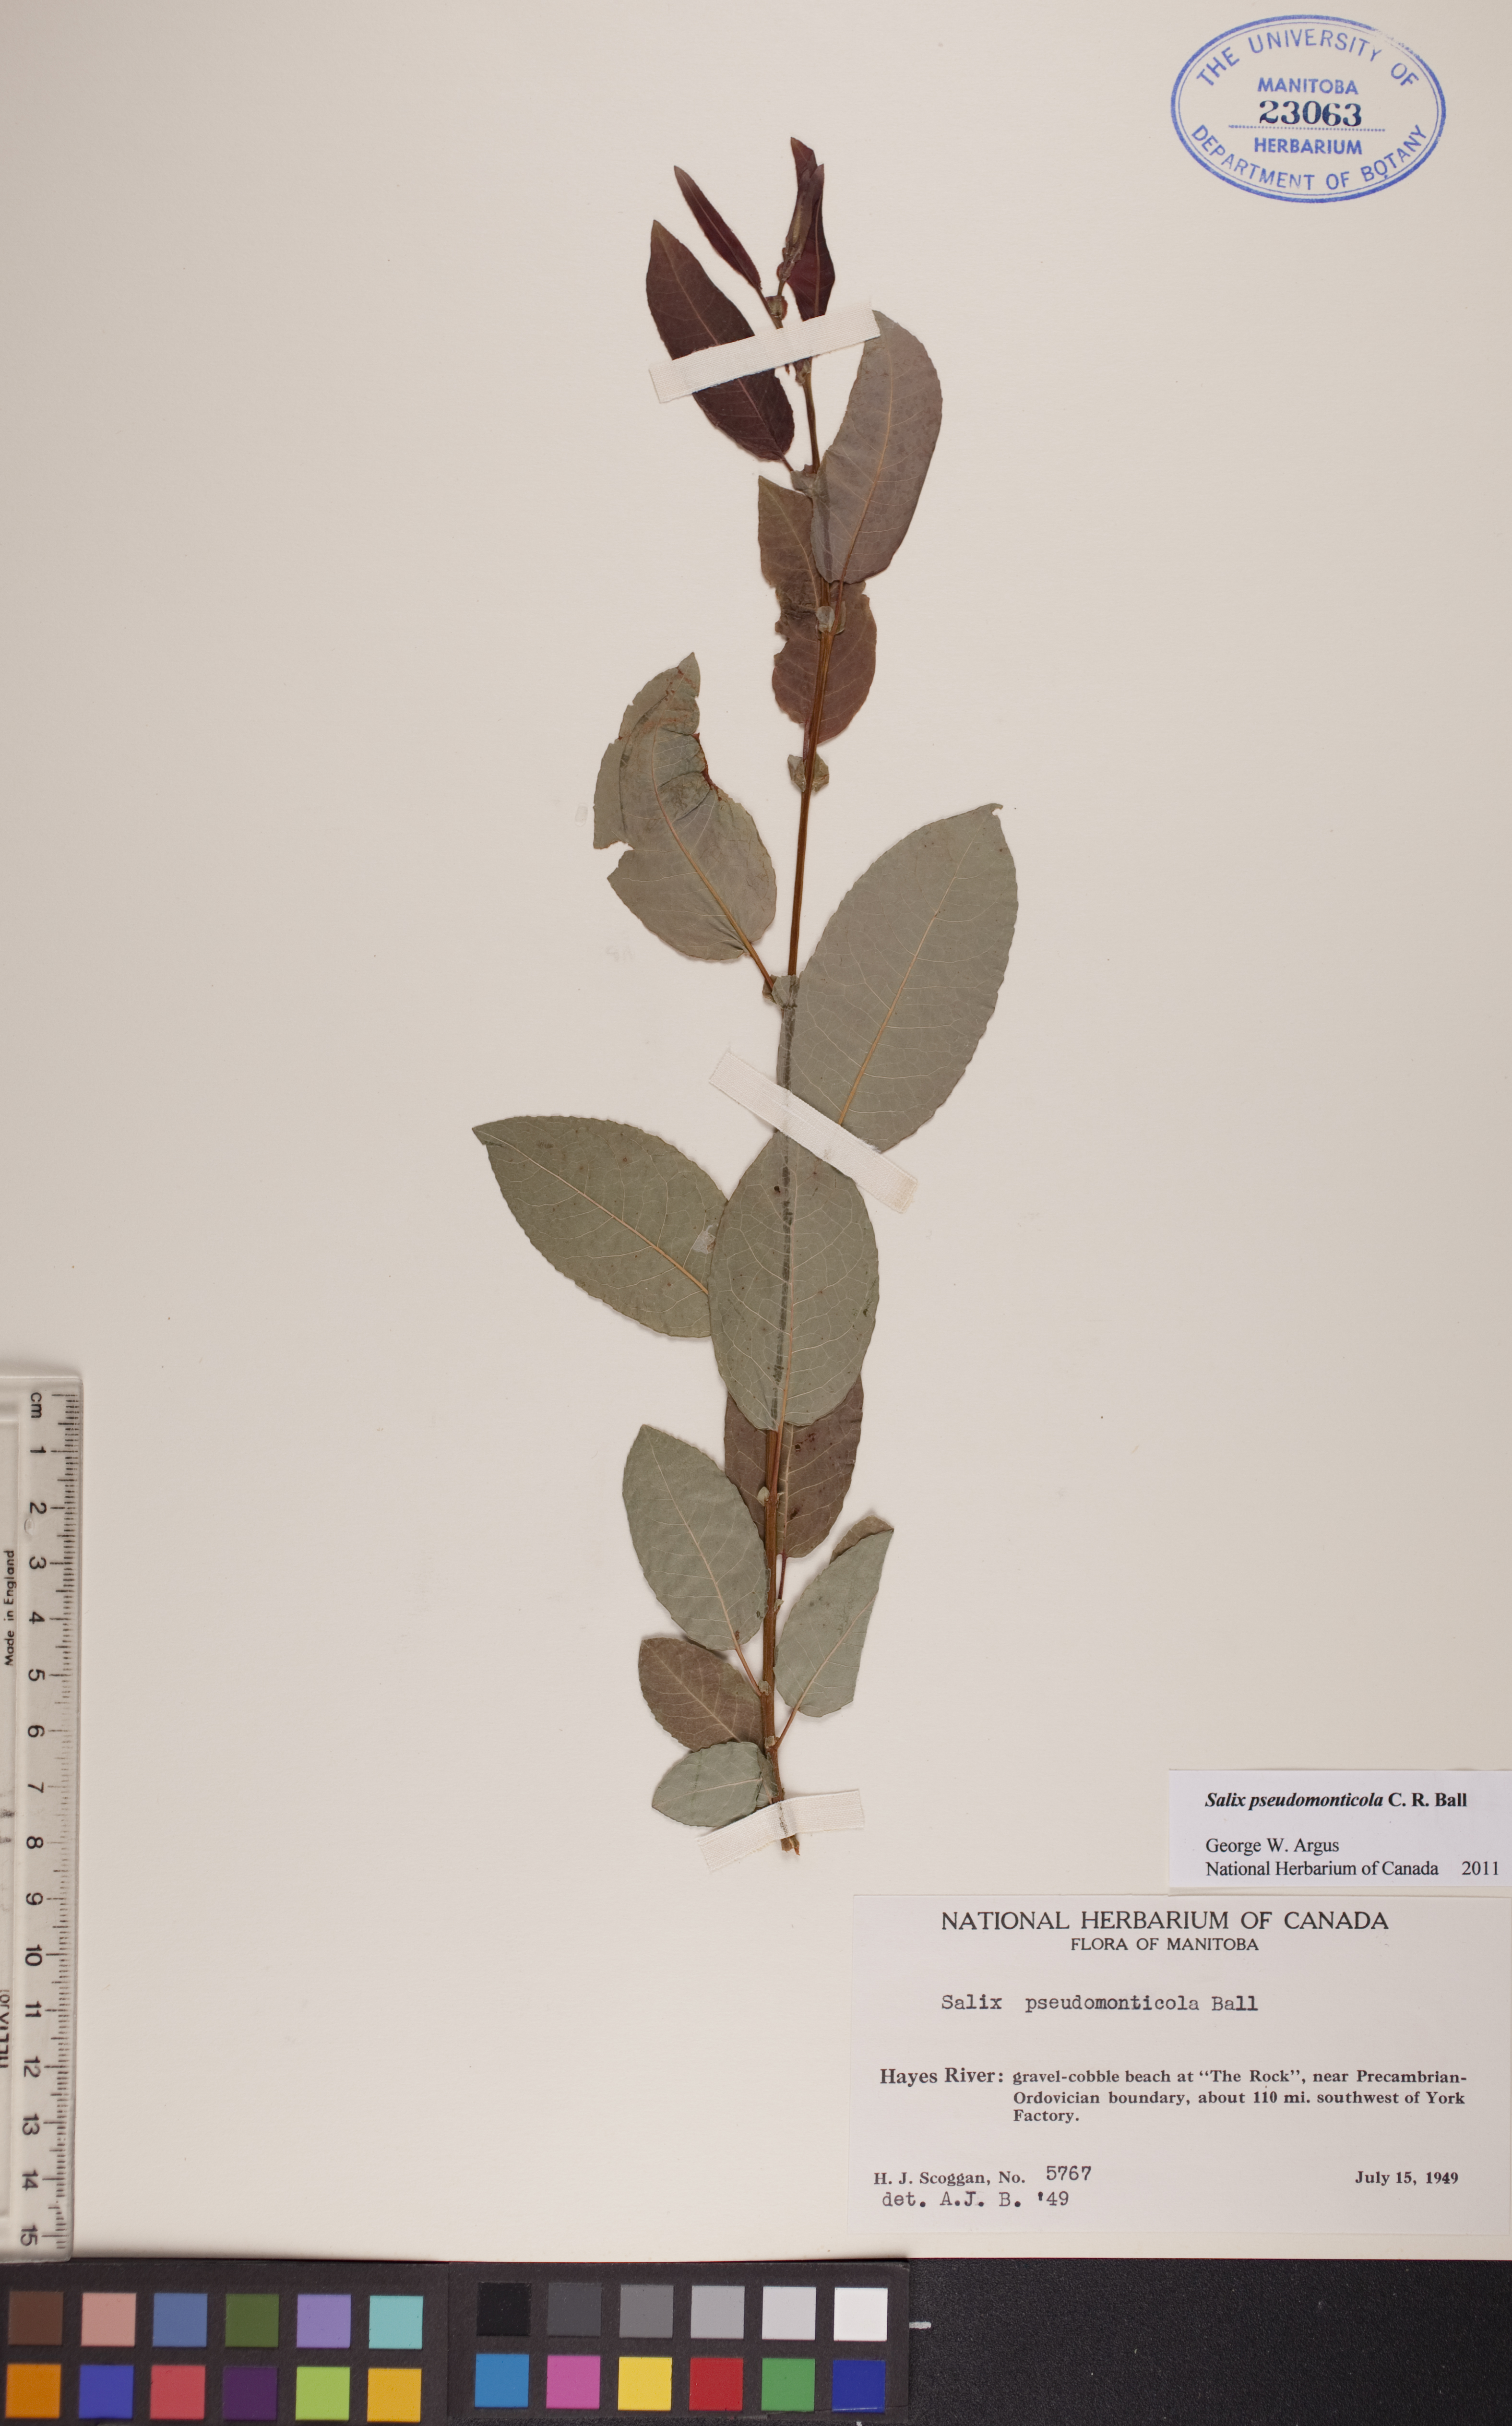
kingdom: Plantae
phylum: Tracheophyta
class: Magnoliopsida
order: Malpighiales
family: Salicaceae
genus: Salix
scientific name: Salix pseudomonticola
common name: Cherry-leaved willow
